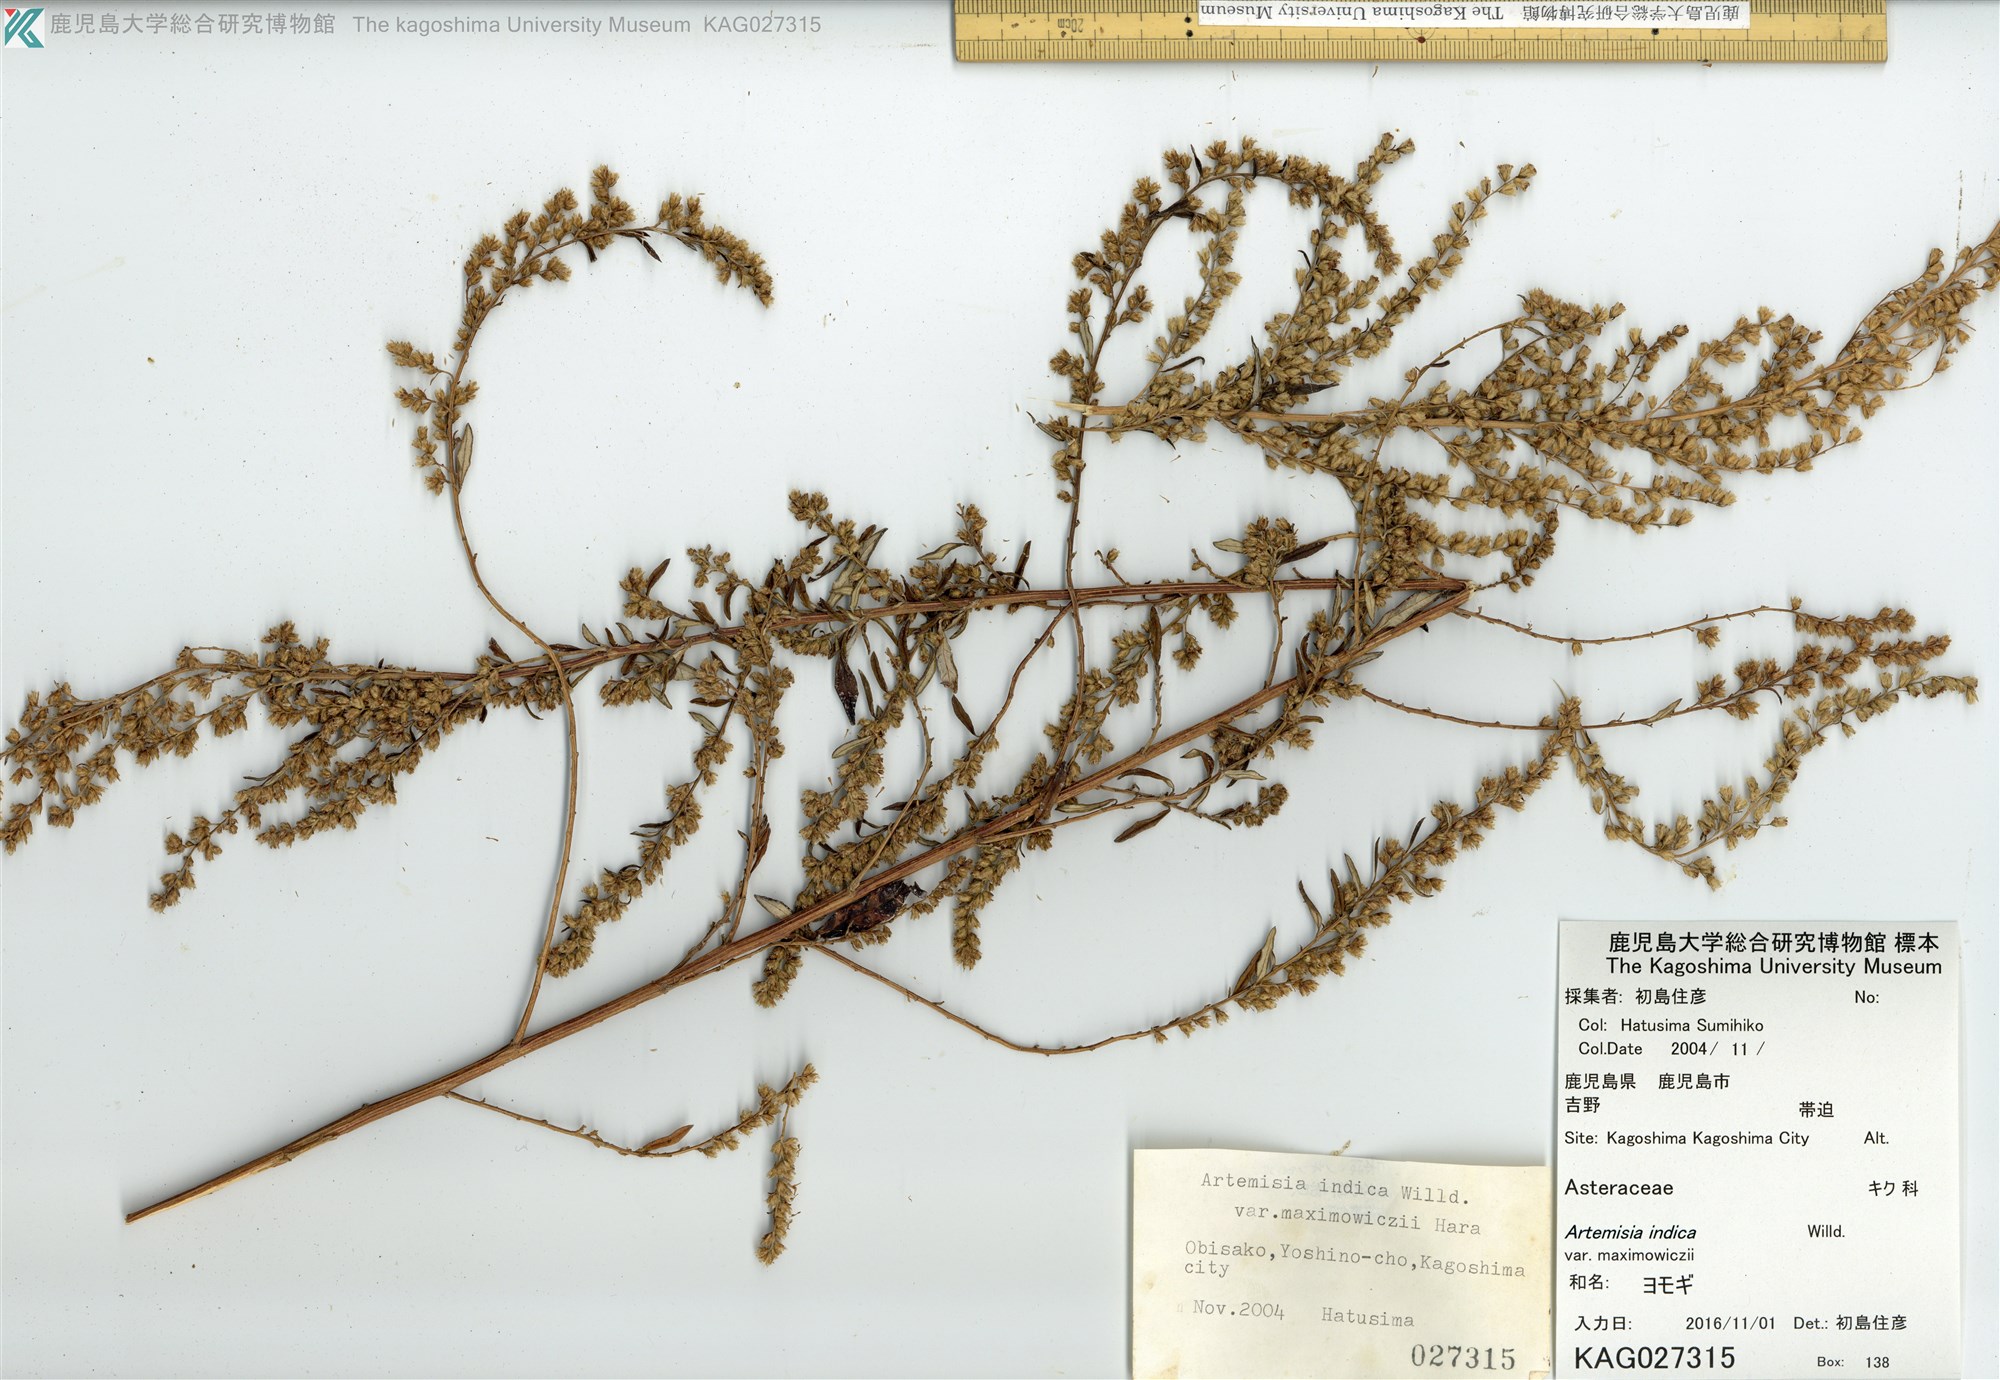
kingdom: Plantae
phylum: Tracheophyta
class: Magnoliopsida
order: Asterales
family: Asteraceae
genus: Artemisia
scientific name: Artemisia princeps
